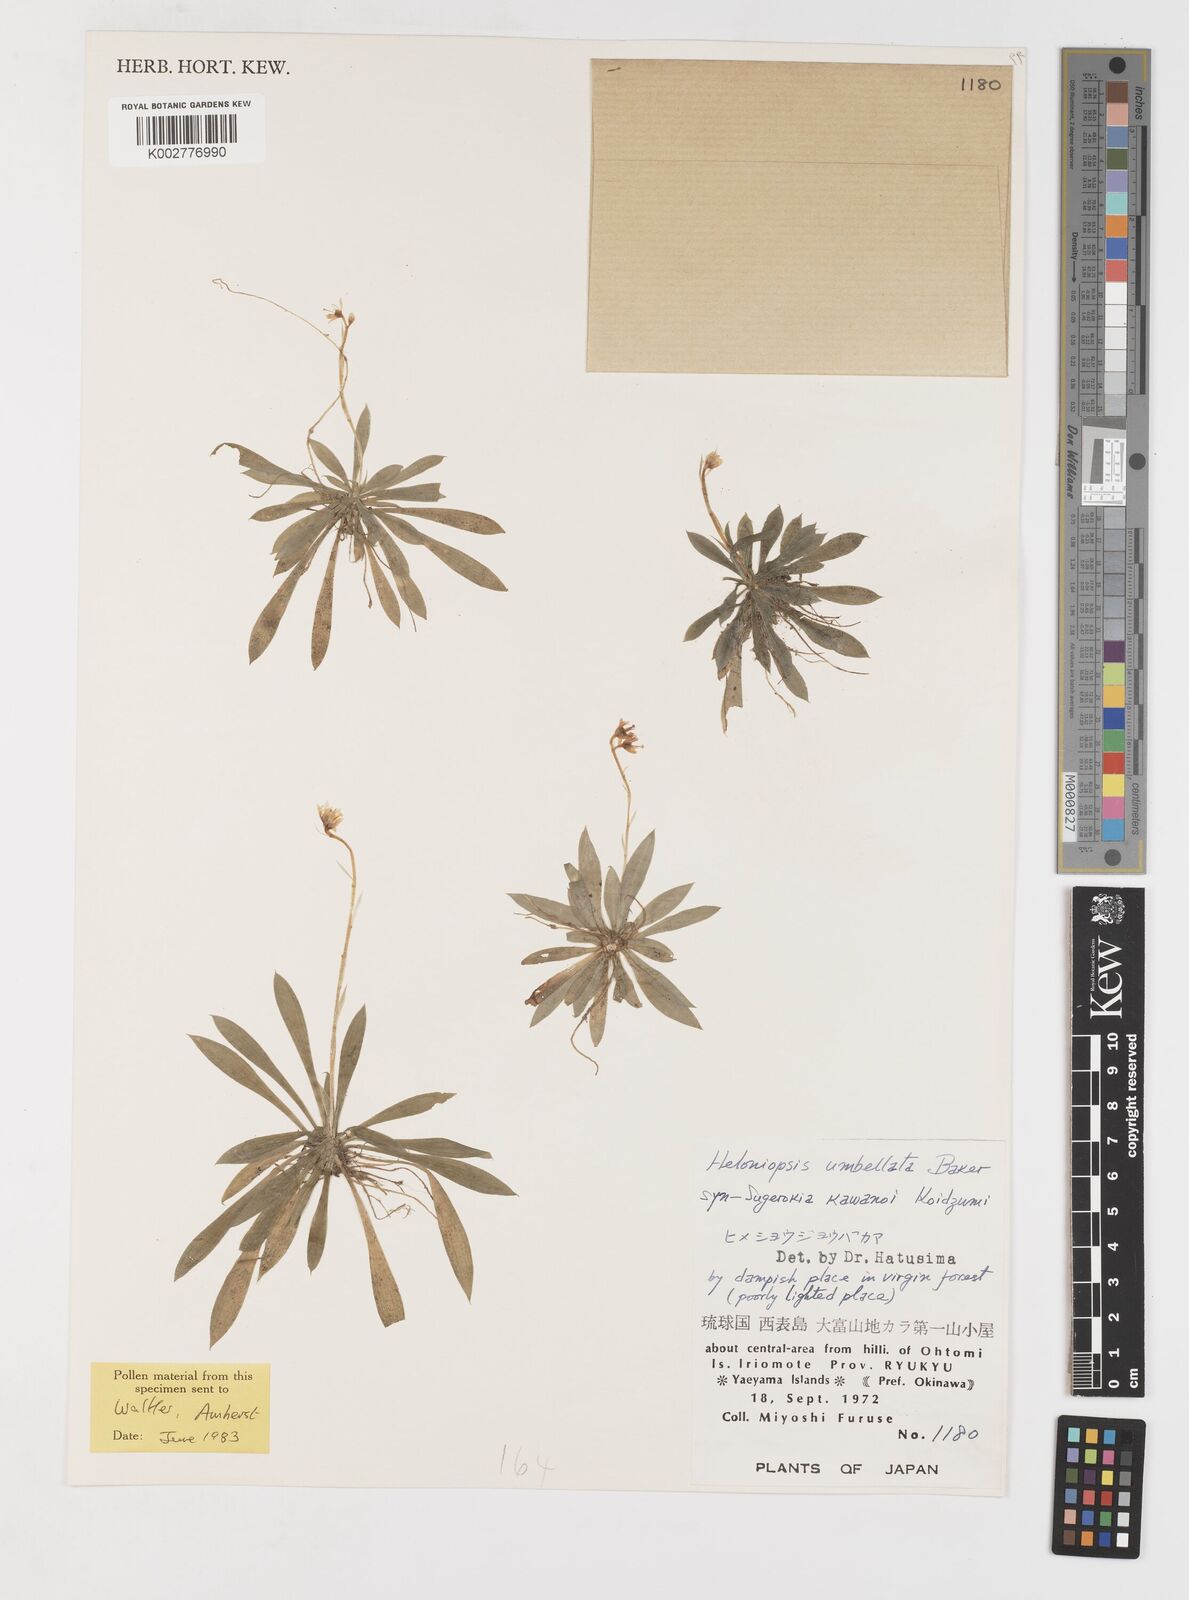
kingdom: Plantae
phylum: Tracheophyta
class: Liliopsida
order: Liliales
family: Melanthiaceae
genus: Helonias
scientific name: Helonias umbellata
